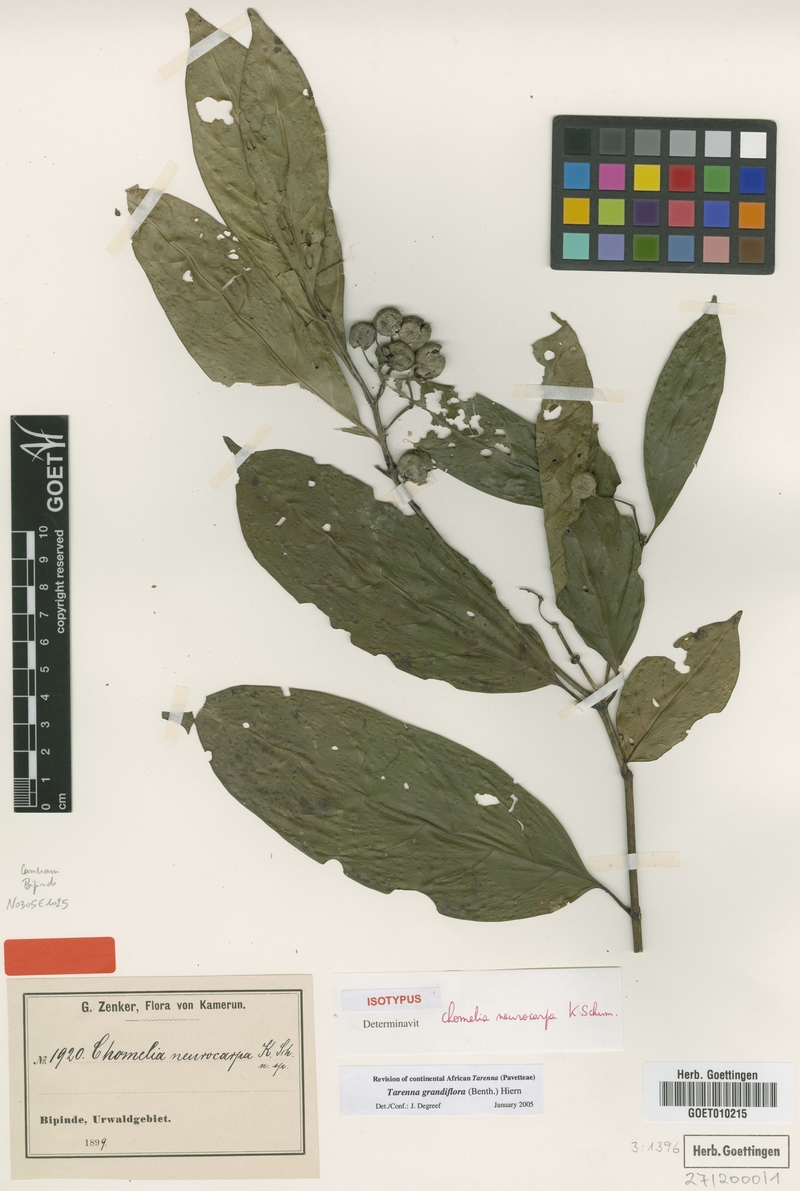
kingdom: Plantae
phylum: Tracheophyta
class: Magnoliopsida
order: Gentianales
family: Rubiaceae
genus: Tarenna
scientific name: Tarenna grandiflora
